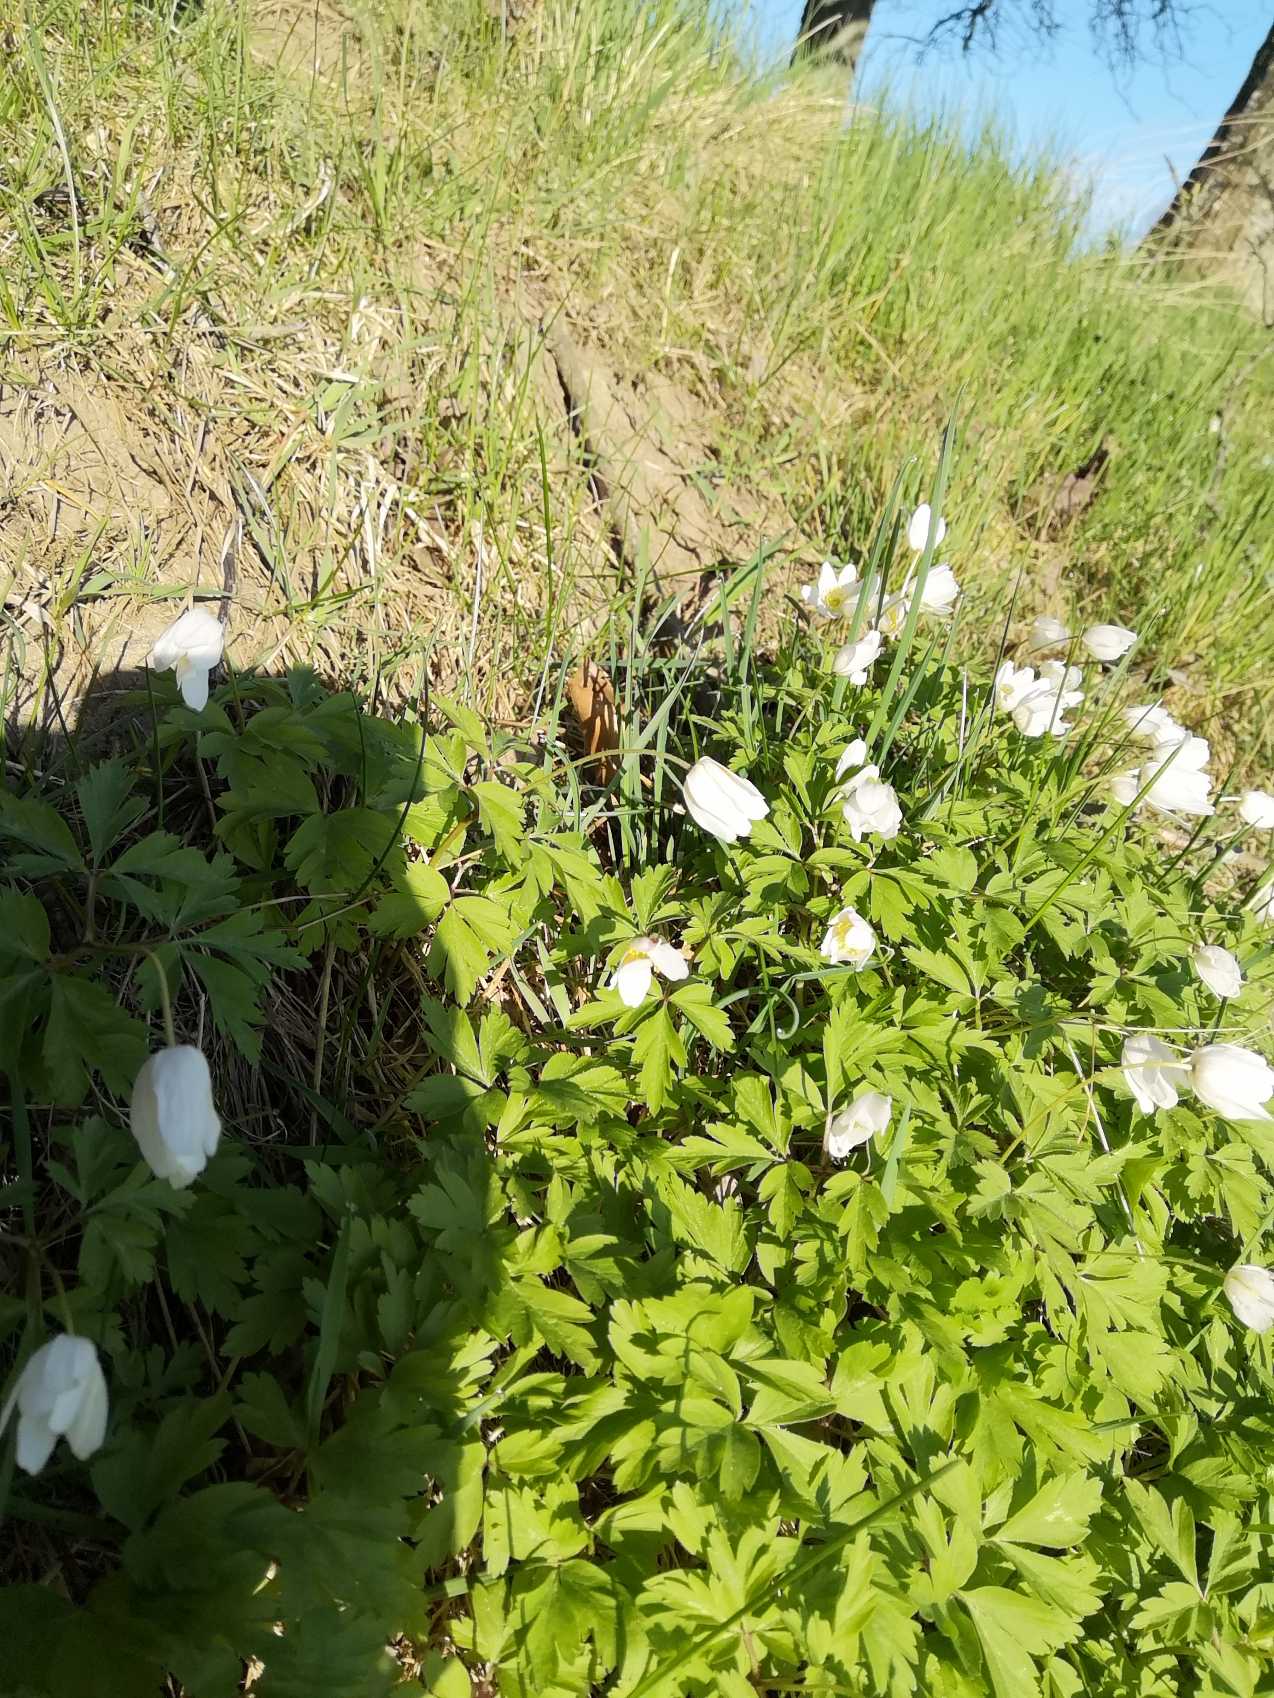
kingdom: Plantae
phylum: Tracheophyta
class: Magnoliopsida
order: Ranunculales
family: Ranunculaceae
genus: Anemone
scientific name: Anemone nemorosa
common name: Hvid anemone
